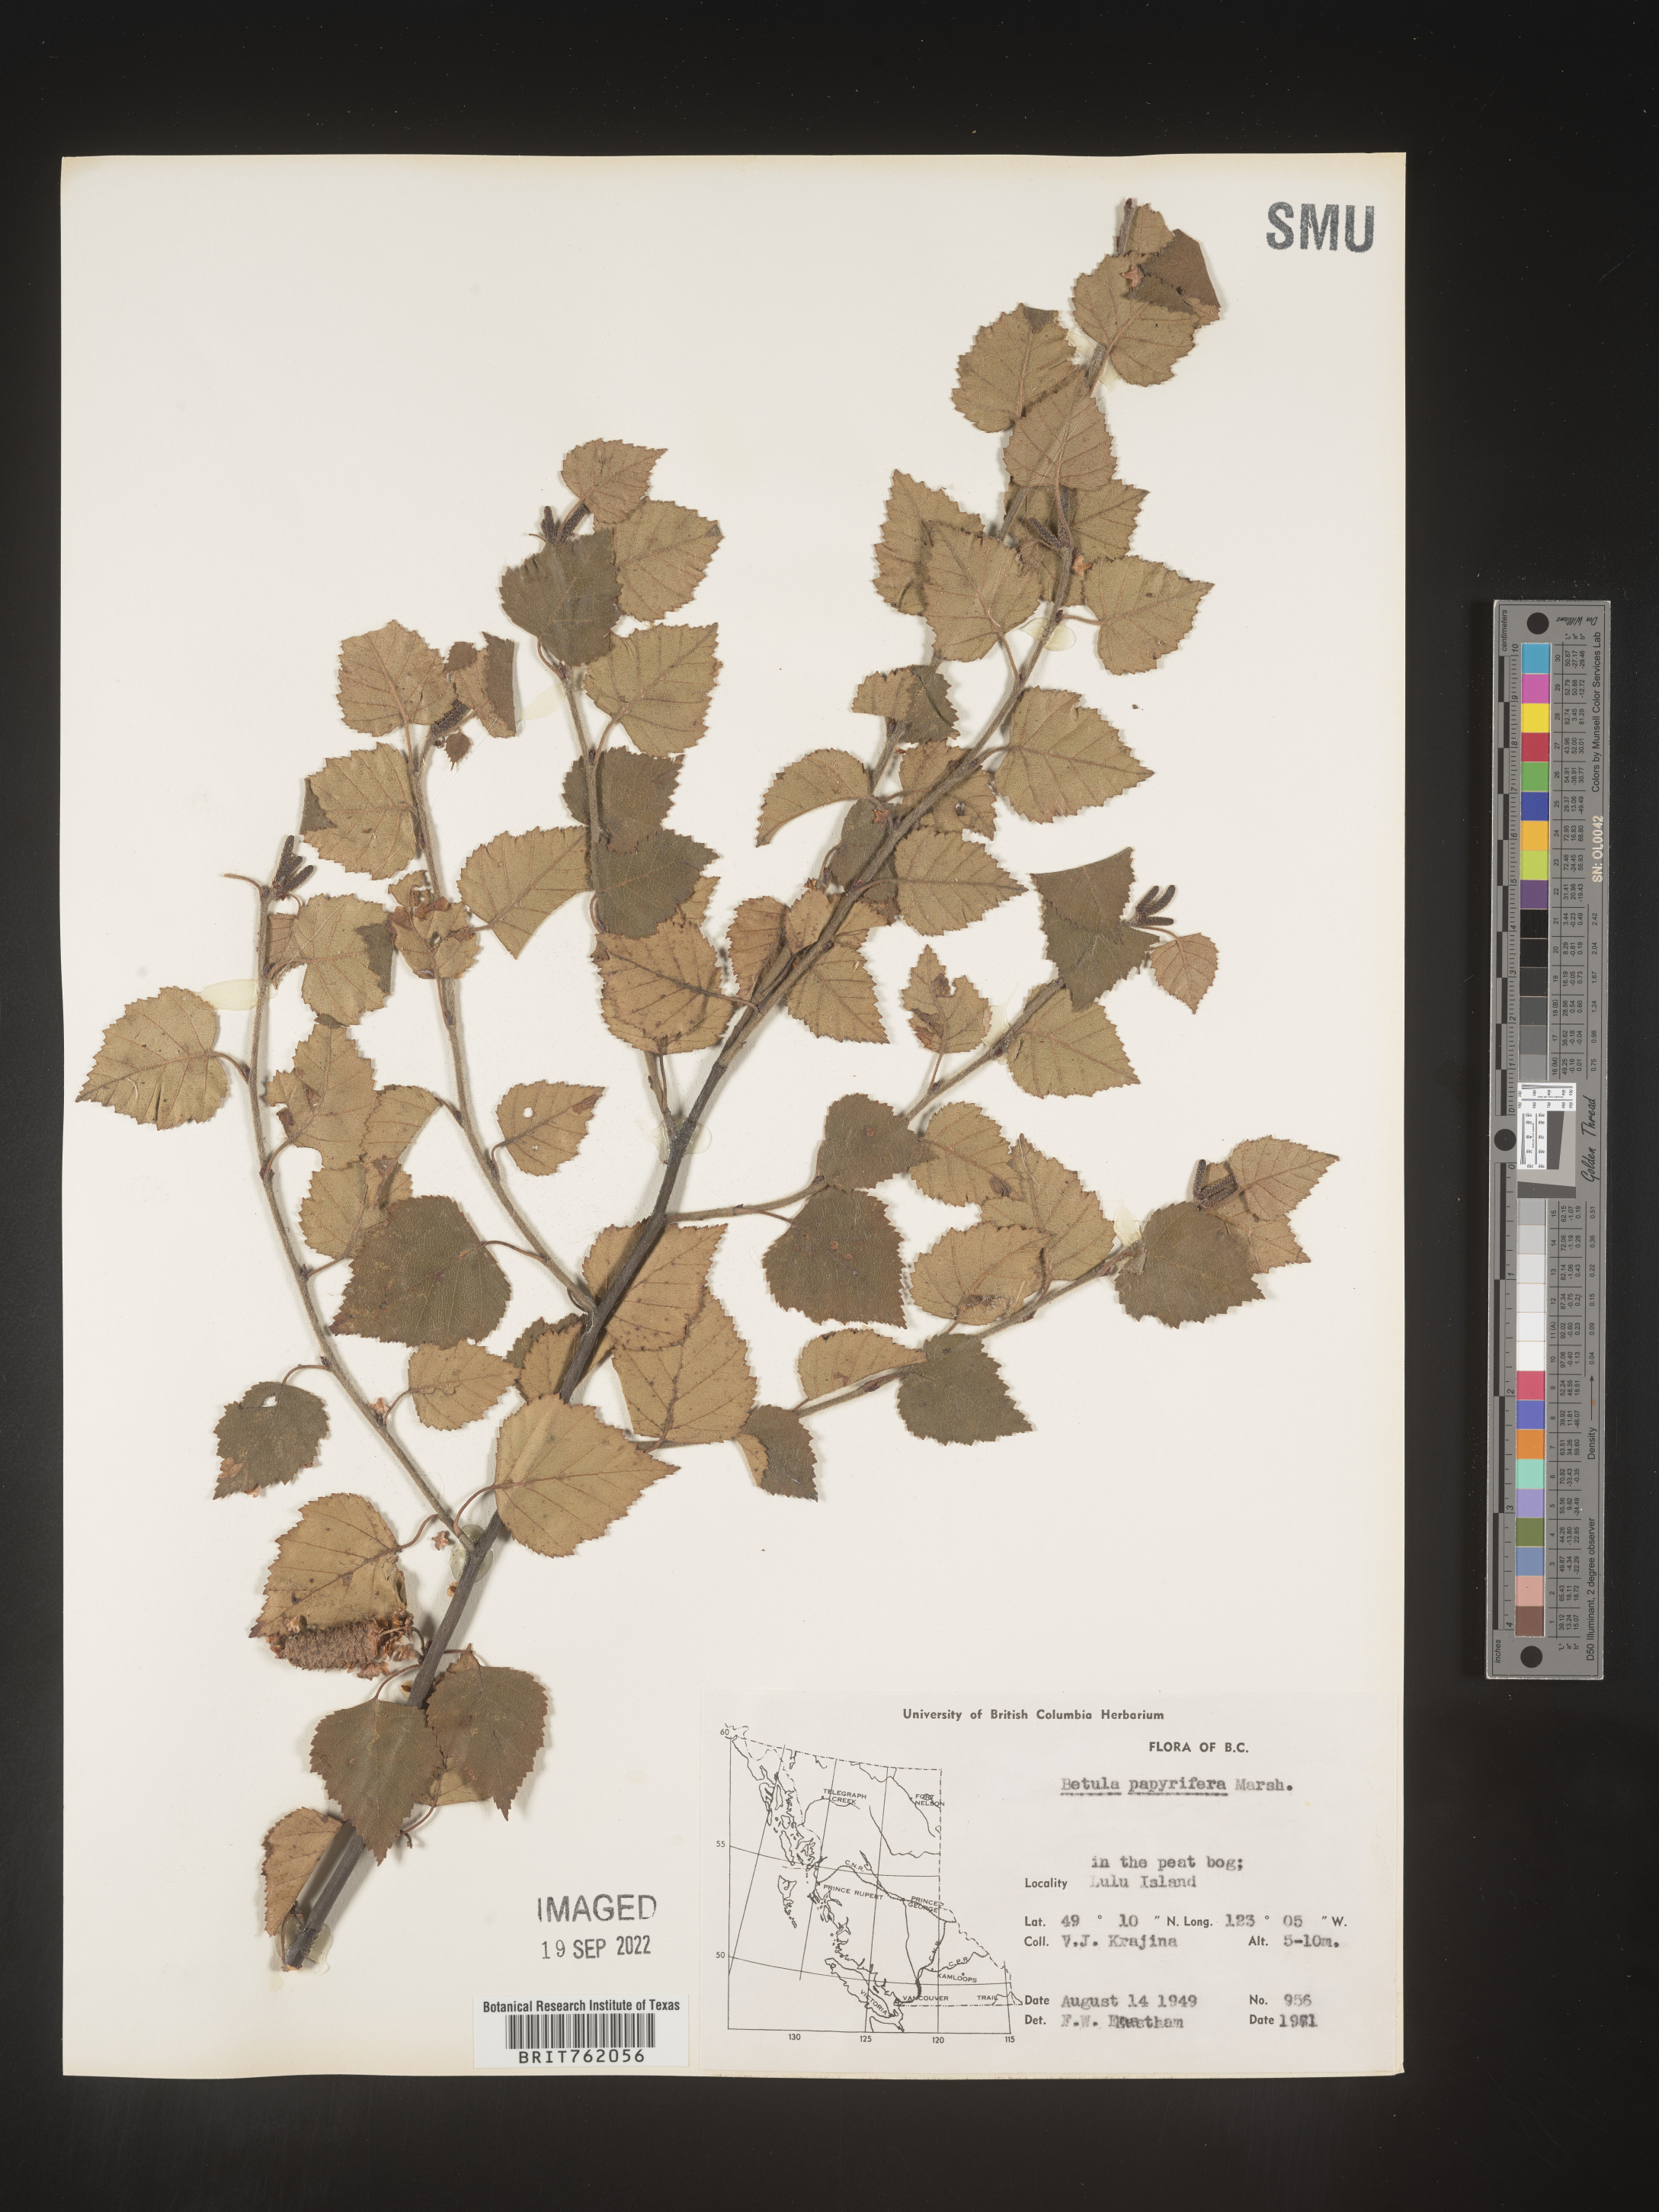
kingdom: Plantae
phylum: Tracheophyta
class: Magnoliopsida
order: Fagales
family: Betulaceae
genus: Betula
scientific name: Betula papyrifera
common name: Paper birch
